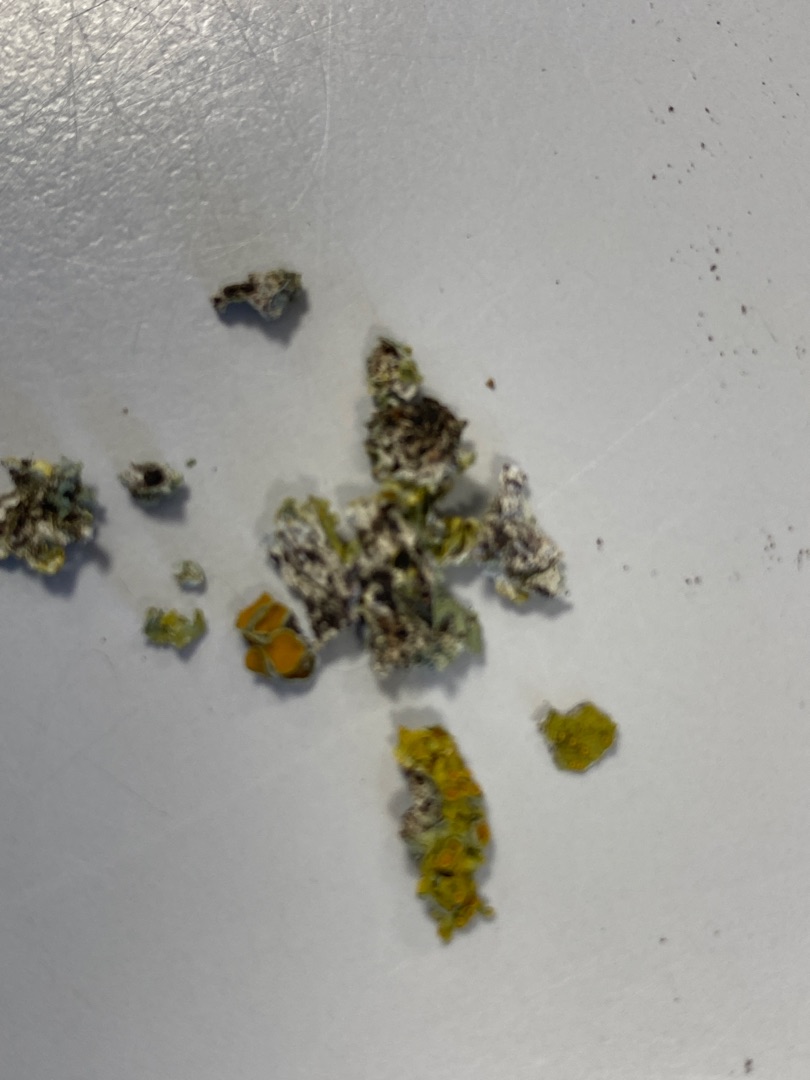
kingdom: Fungi
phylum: Ascomycota
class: Lecanoromycetes
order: Teloschistales
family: Teloschistaceae
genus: Xanthoria
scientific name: Xanthoria parietina
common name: Almindelig væggelav
